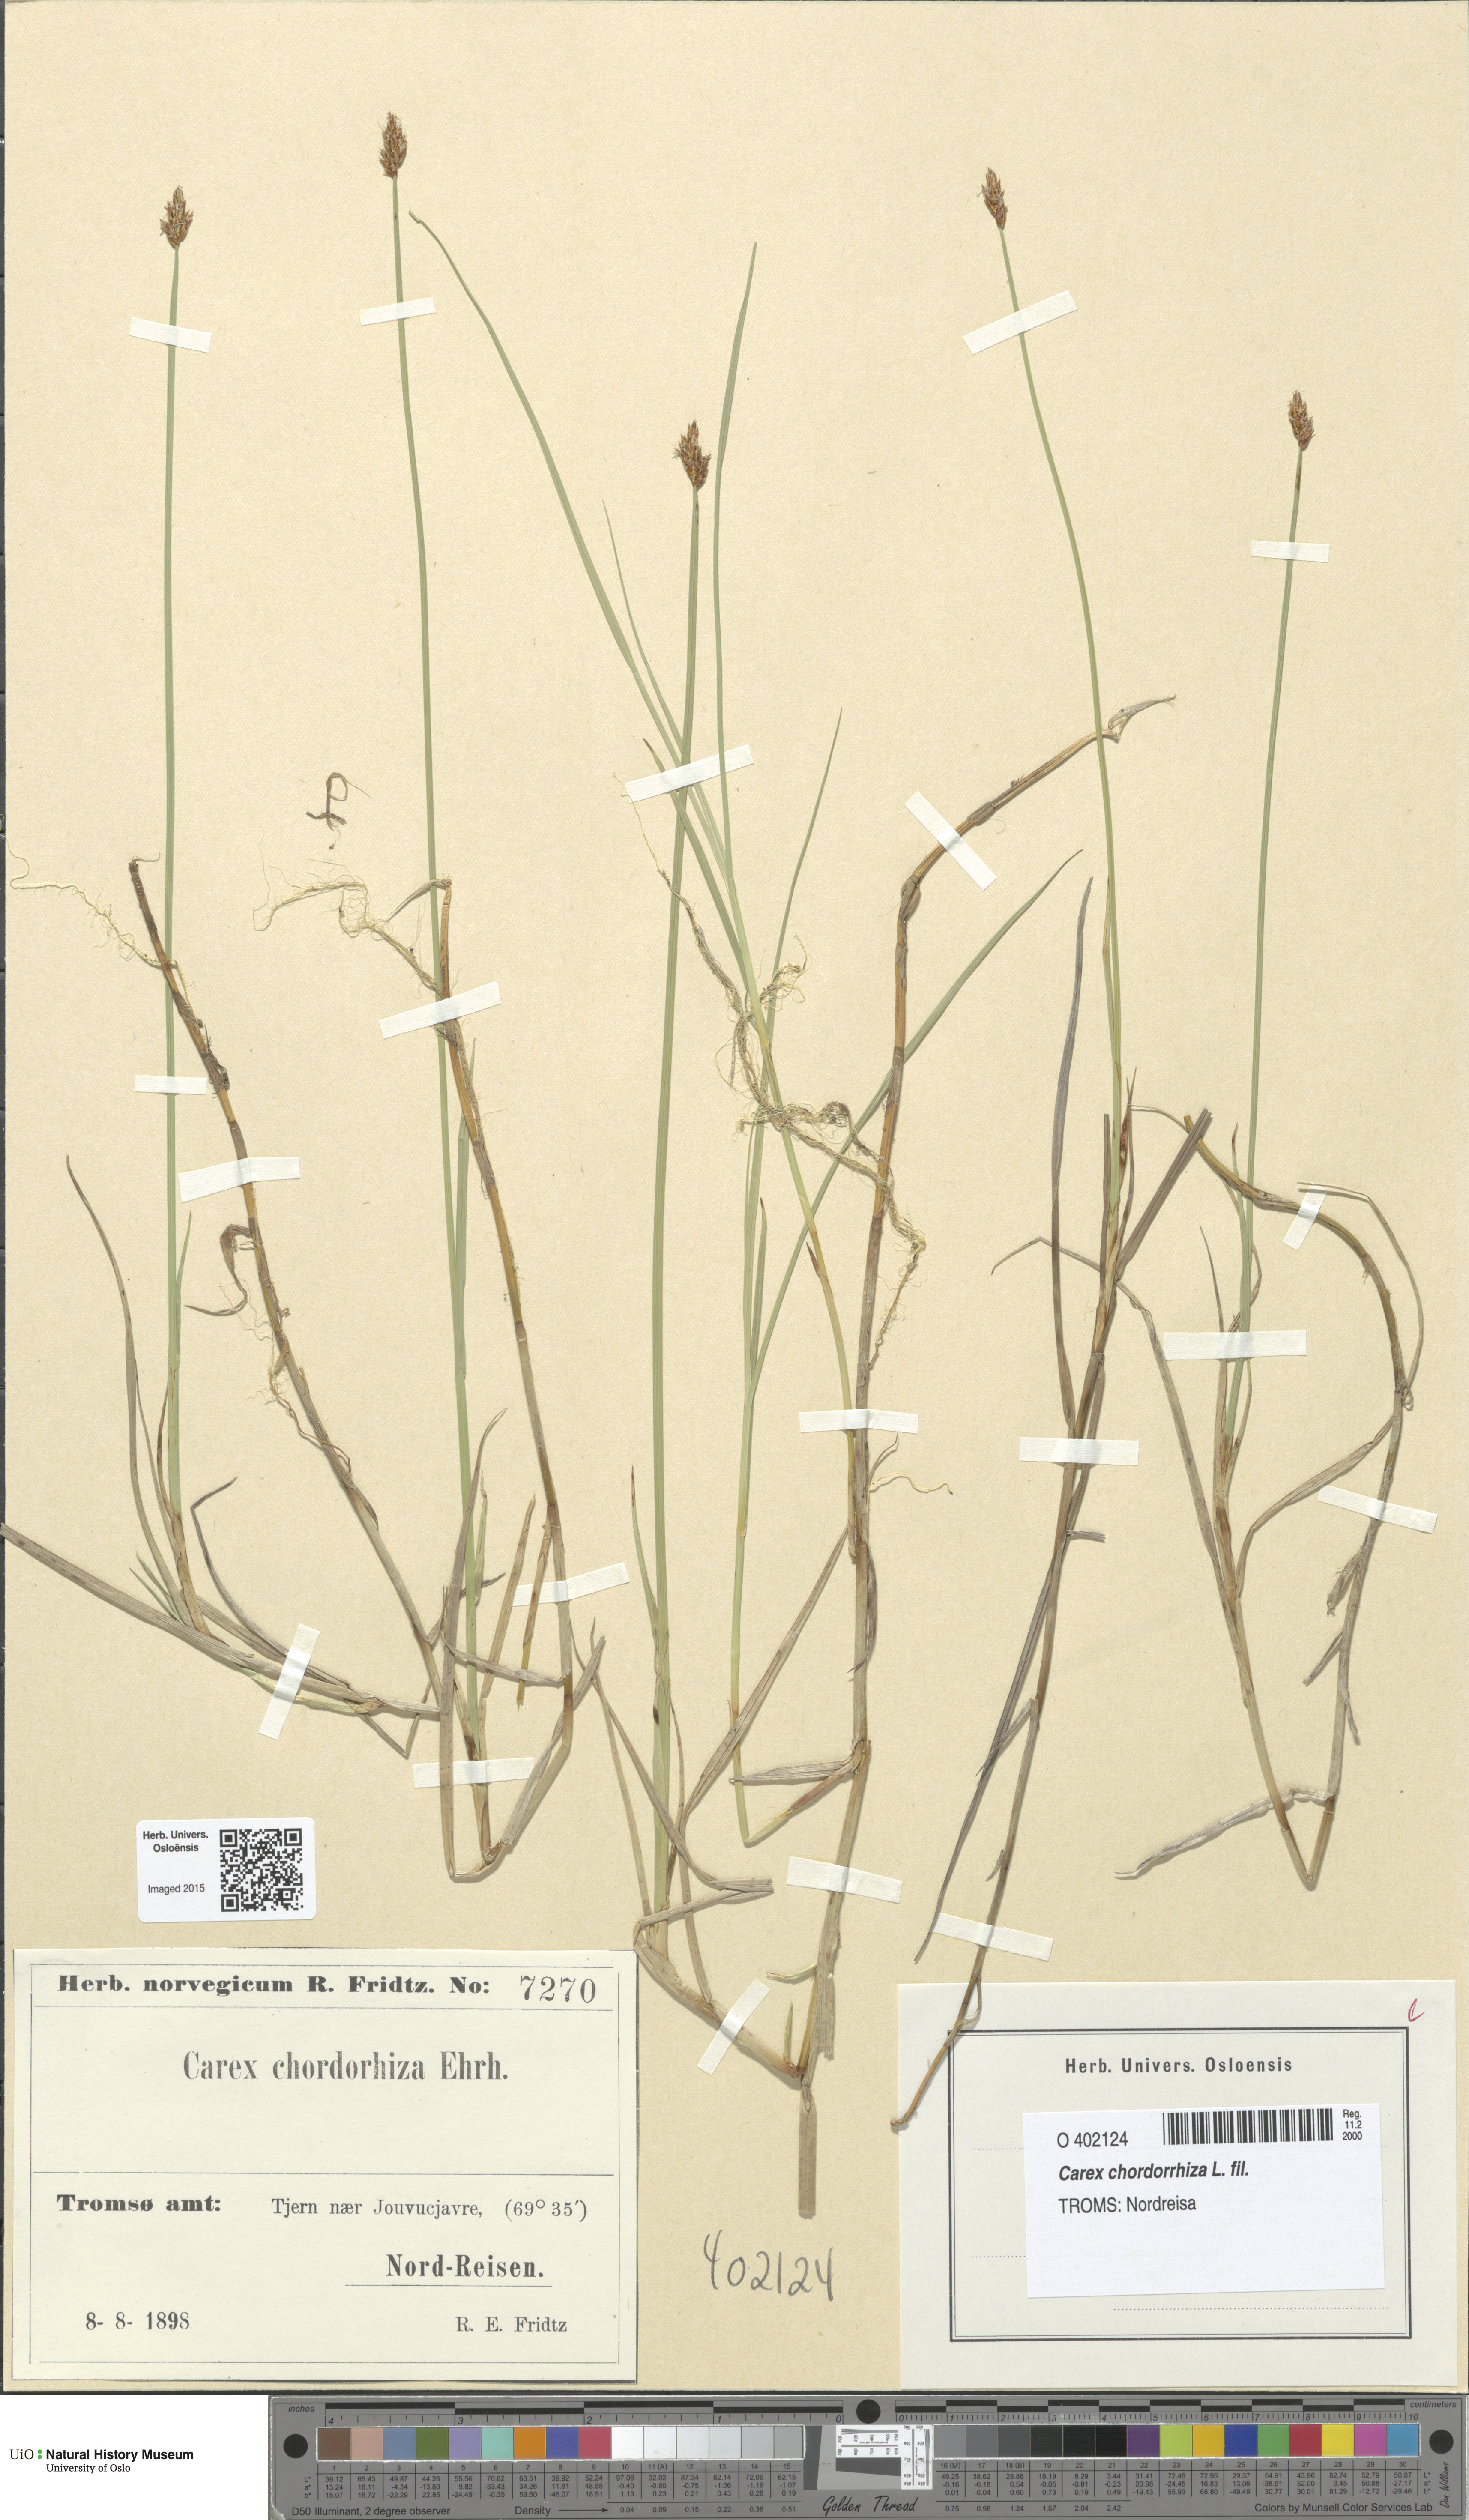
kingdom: Plantae
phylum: Tracheophyta
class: Liliopsida
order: Poales
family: Cyperaceae
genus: Carex
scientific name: Carex chordorrhiza
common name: String sedge
